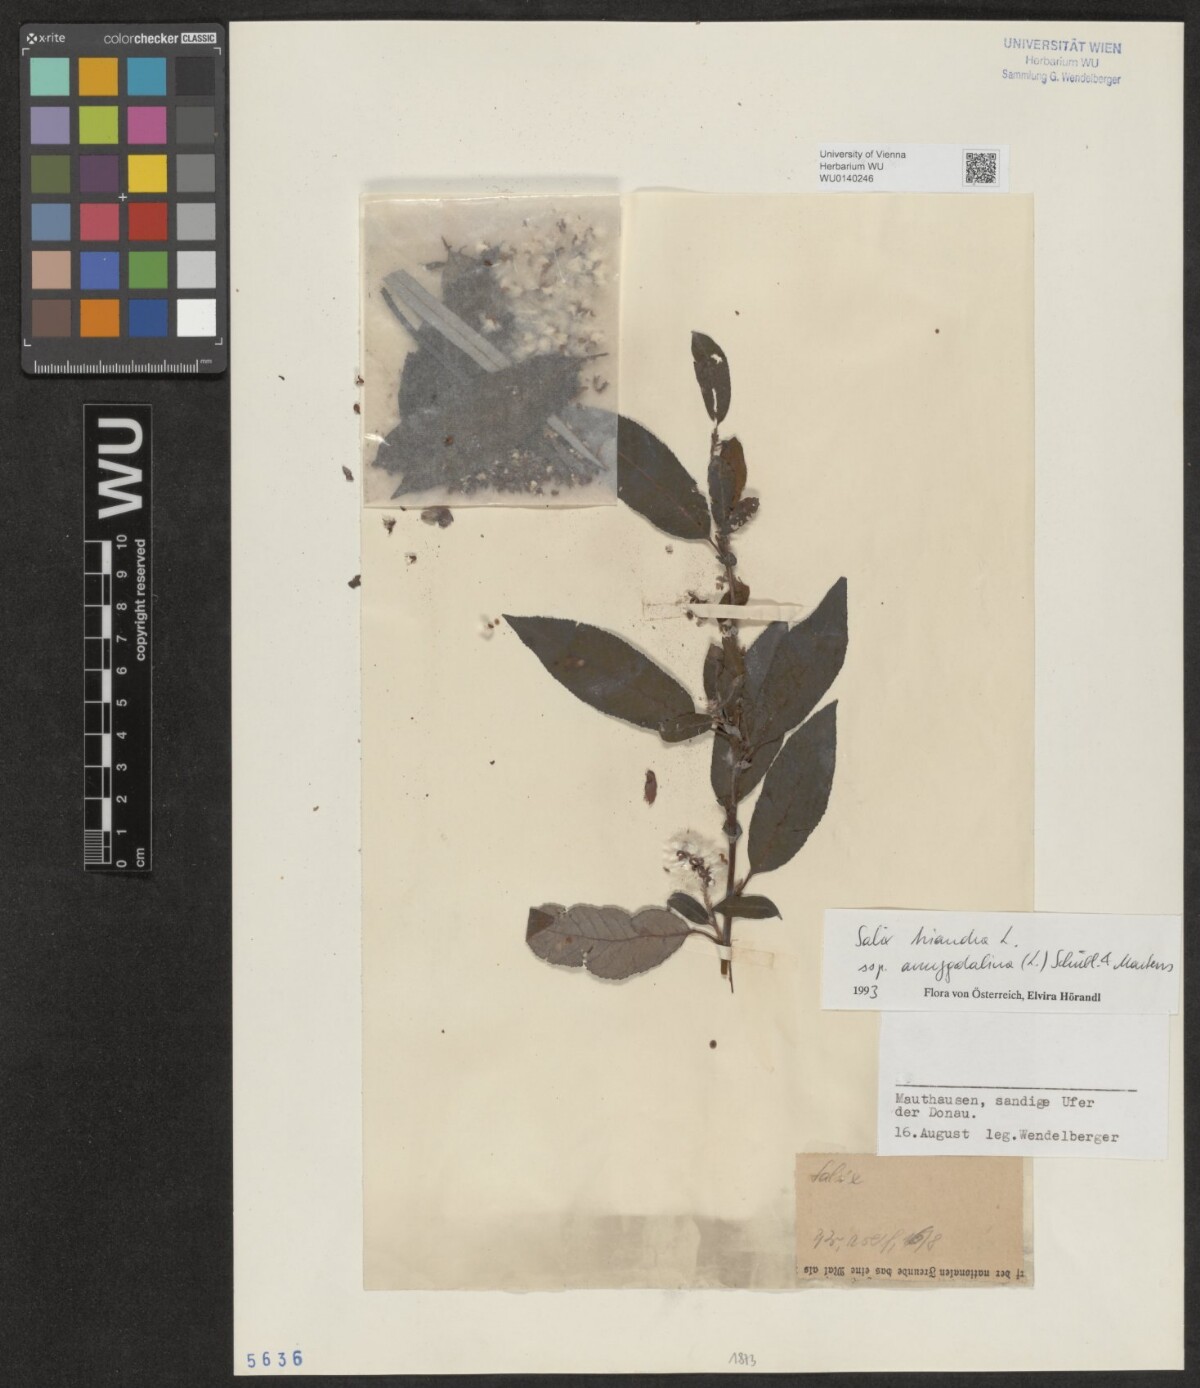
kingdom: Plantae
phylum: Tracheophyta
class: Magnoliopsida
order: Malpighiales
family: Salicaceae
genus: Salix
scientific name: Salix triandra
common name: Almond willow
